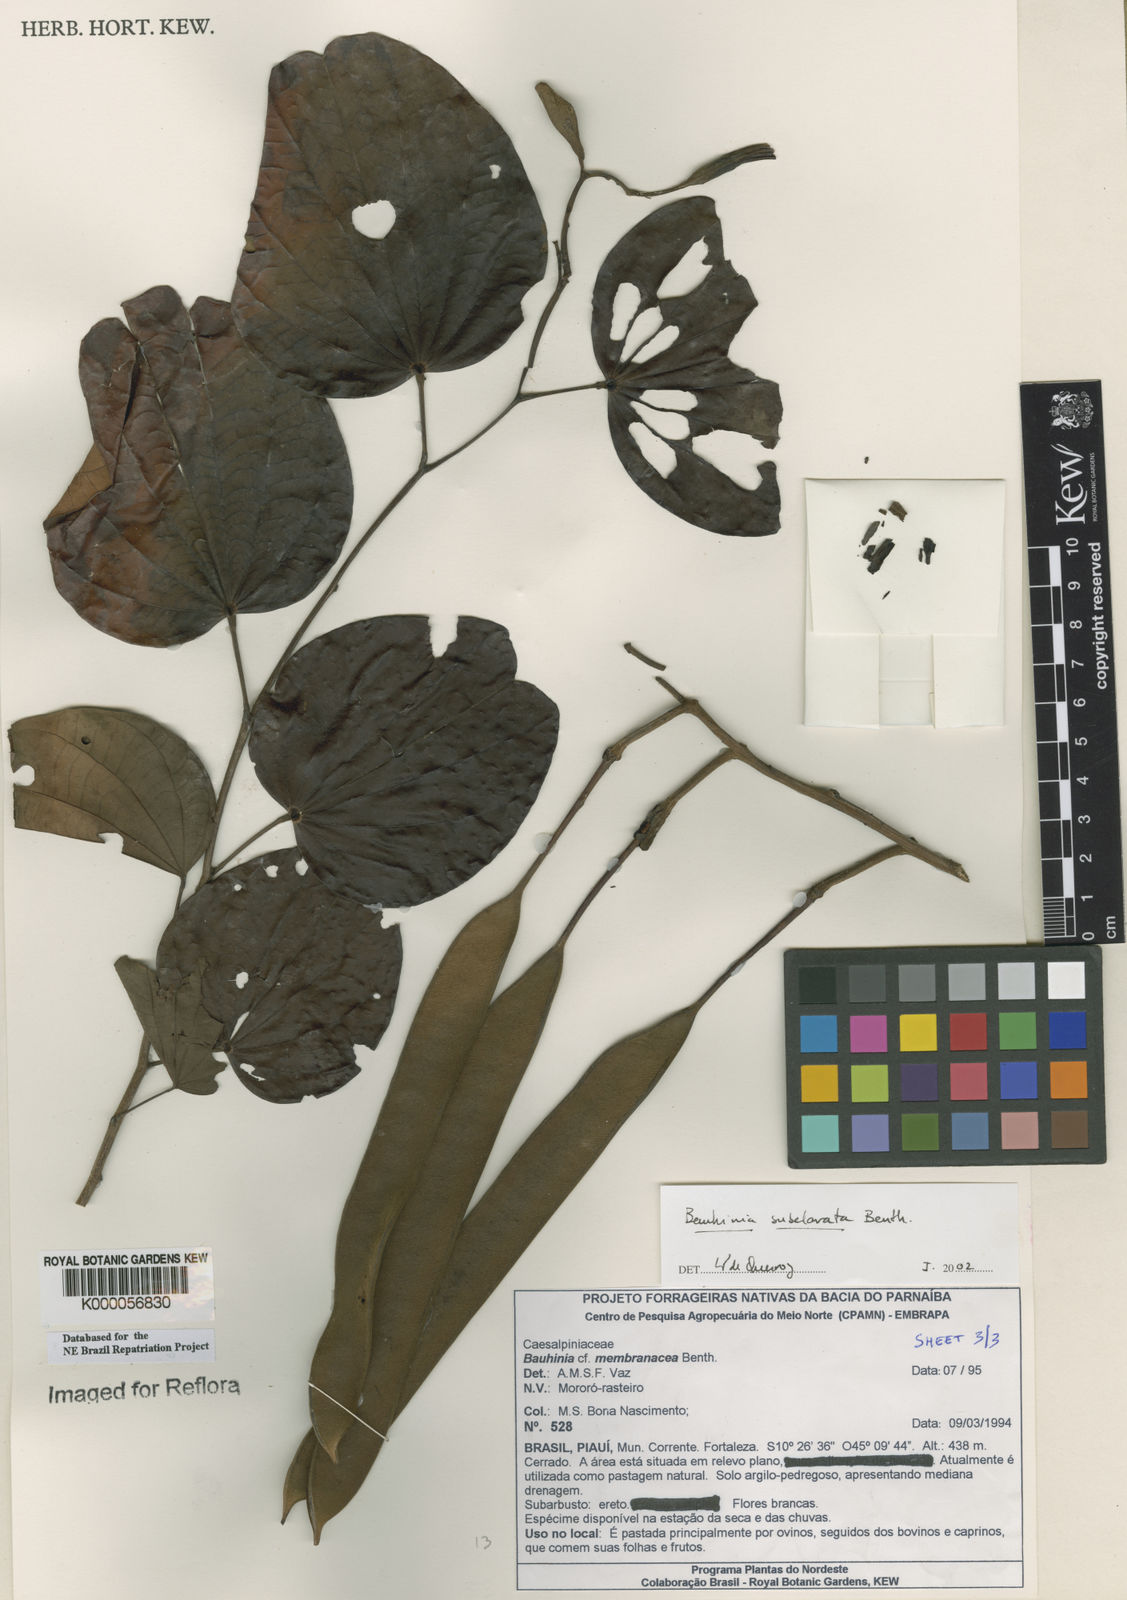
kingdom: Plantae
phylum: Tracheophyta
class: Magnoliopsida
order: Fabales
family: Fabaceae
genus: Bauhinia
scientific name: Bauhinia subclavata
